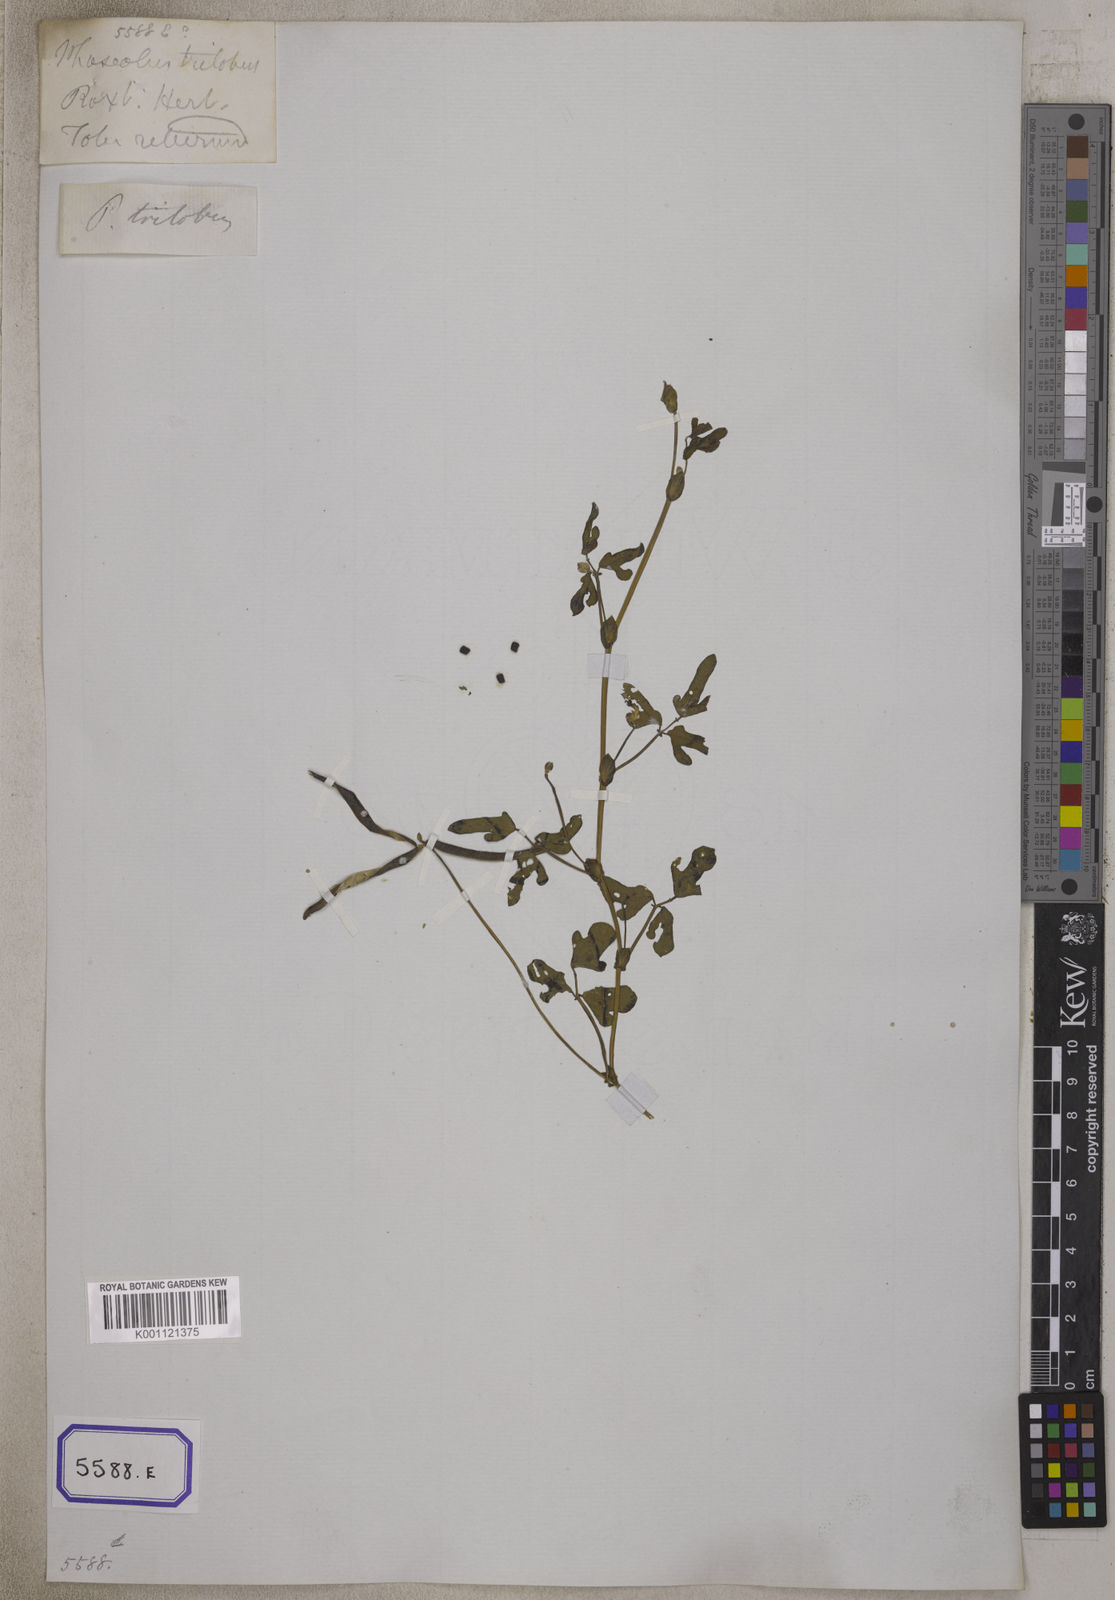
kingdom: Plantae
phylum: Tracheophyta
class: Magnoliopsida
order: Fabales
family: Fabaceae
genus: Phaseolus
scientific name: Phaseolus
